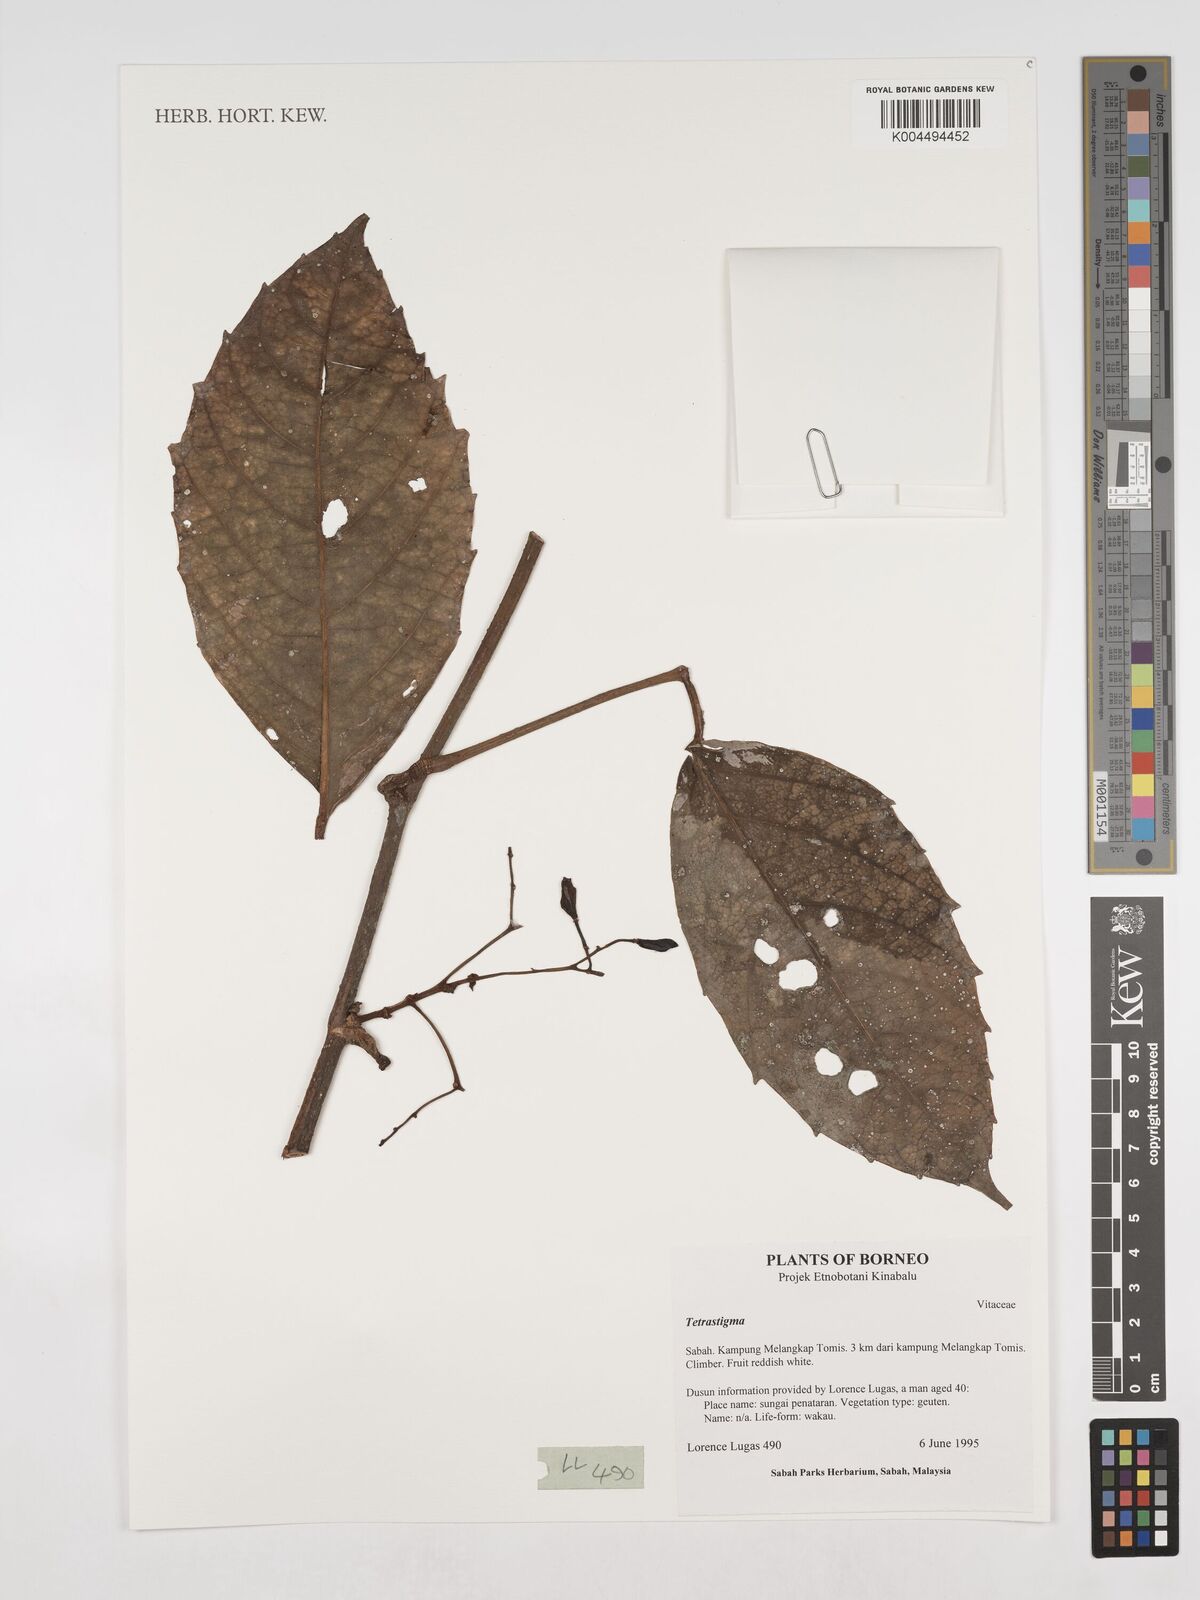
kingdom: Plantae
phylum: Tracheophyta
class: Magnoliopsida
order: Vitales
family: Vitaceae
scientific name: Vitaceae
